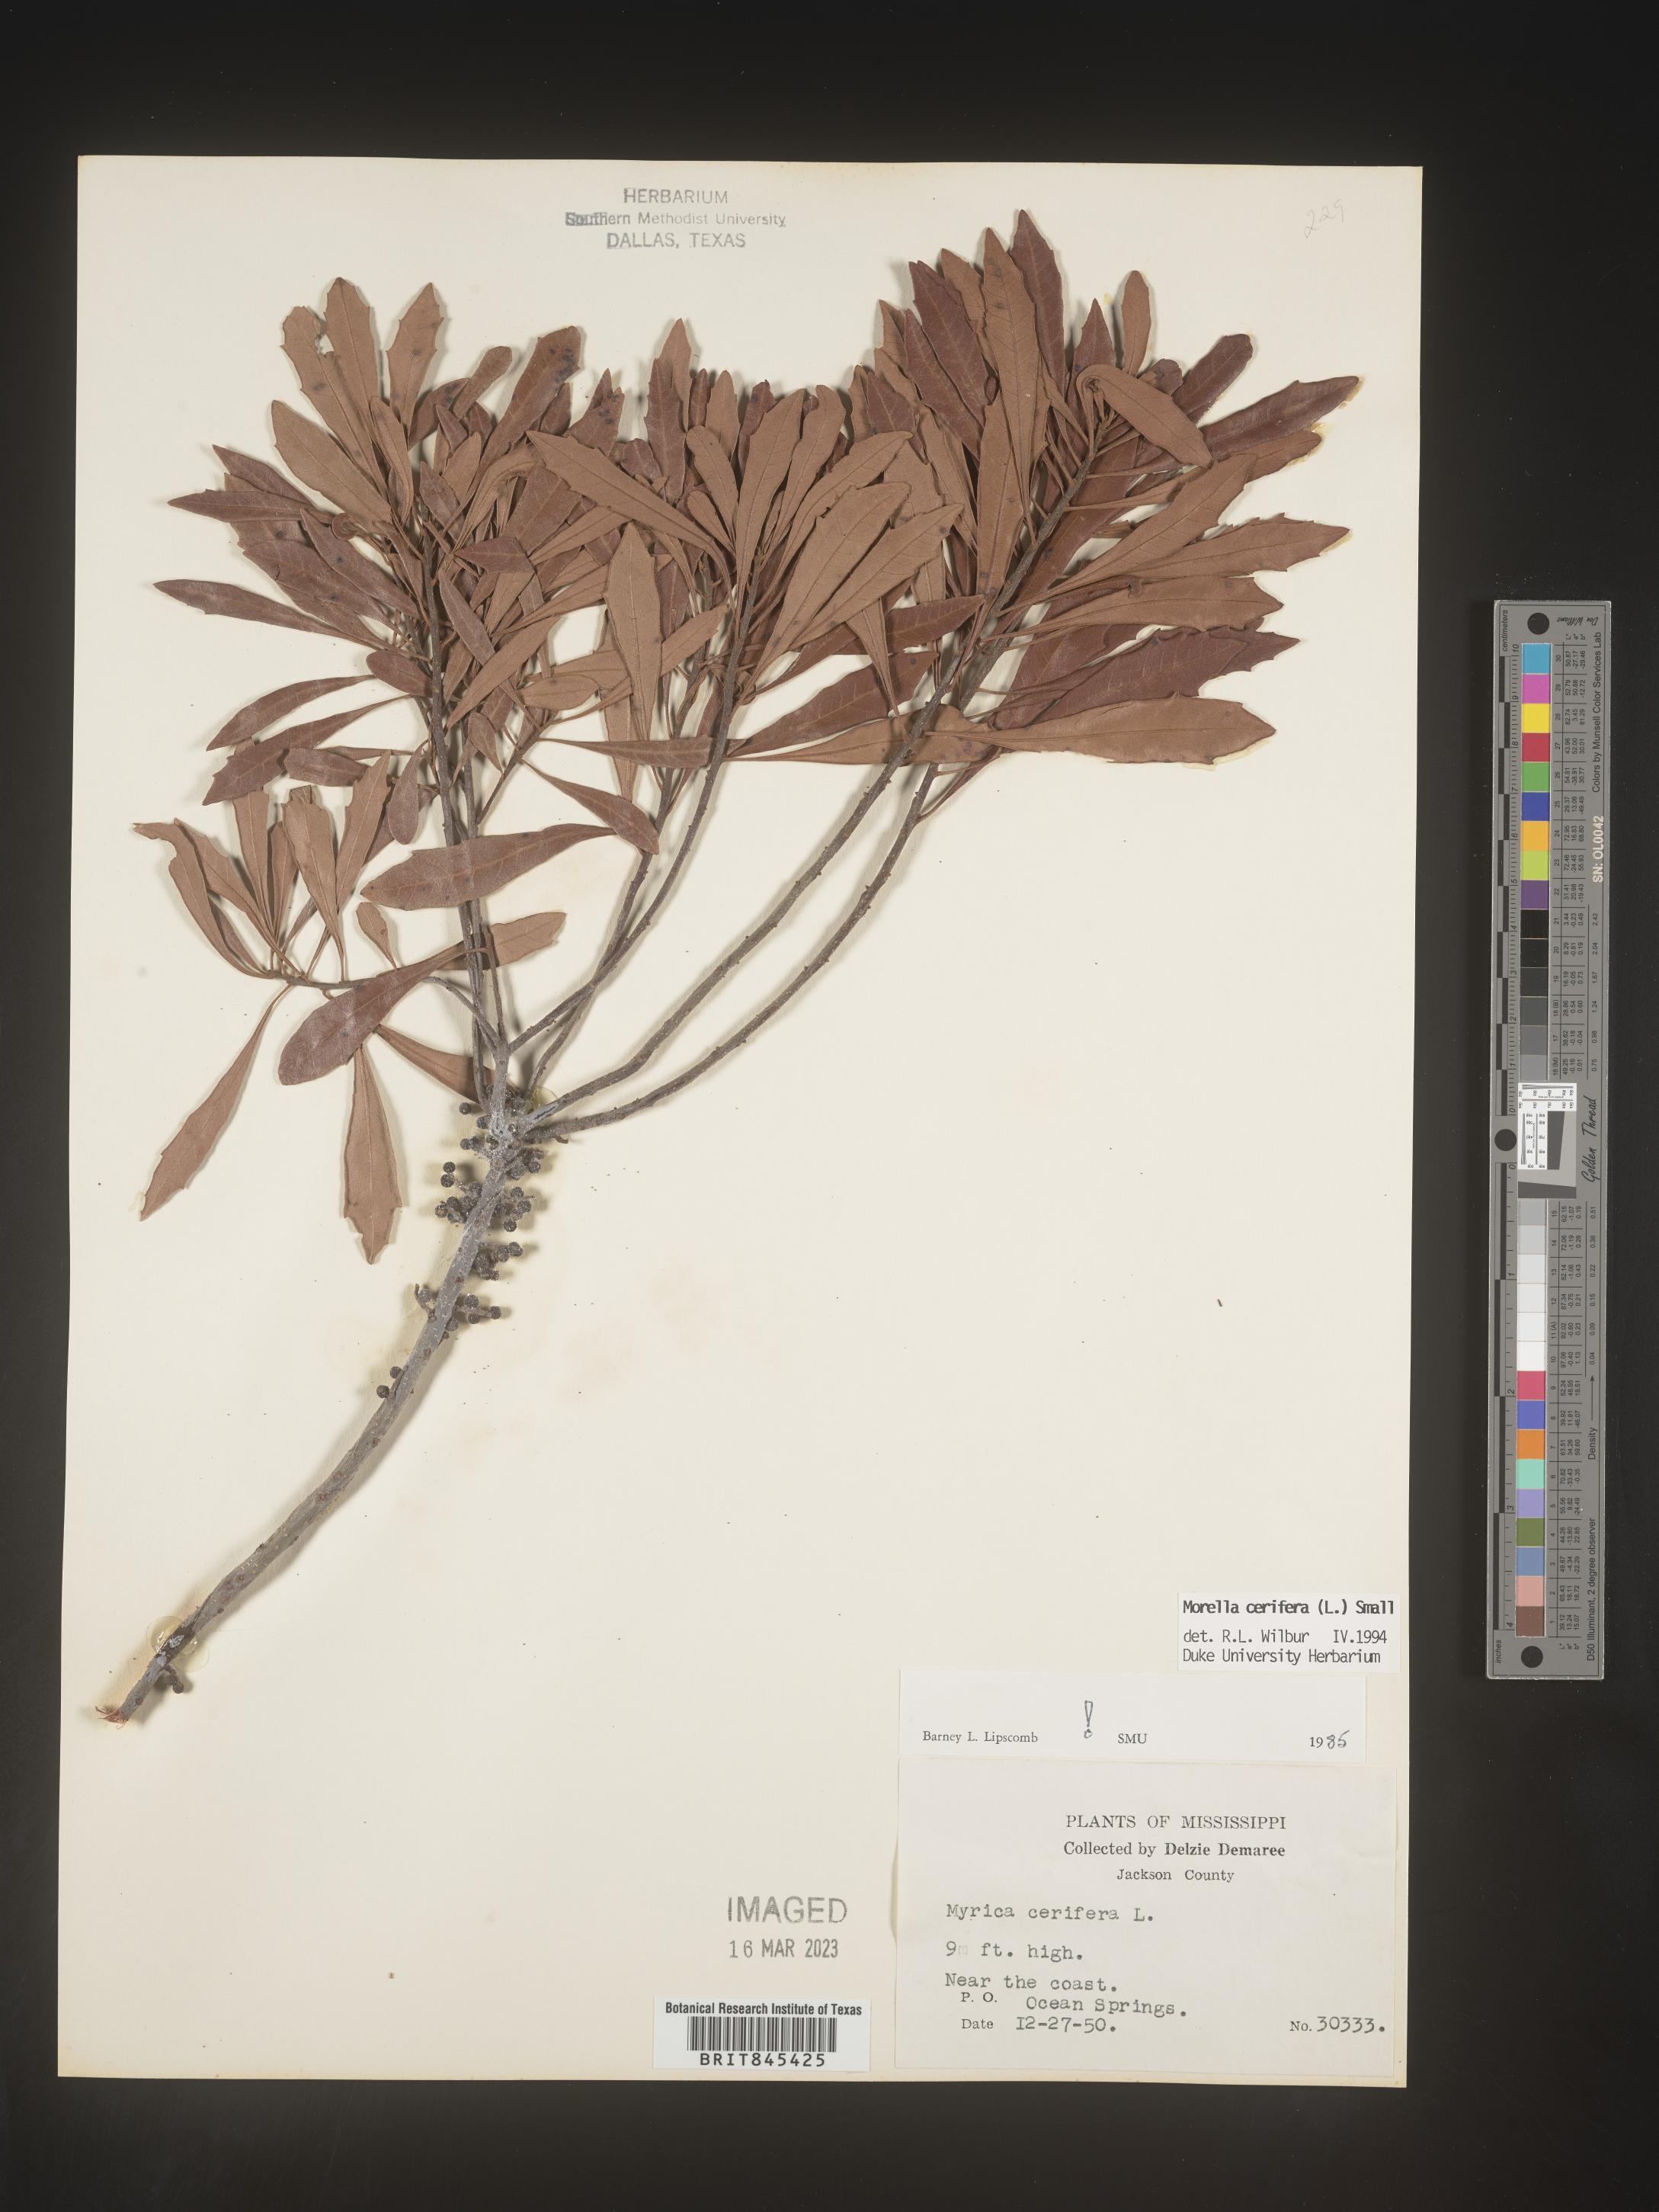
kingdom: Plantae
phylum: Tracheophyta
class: Magnoliopsida
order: Fagales
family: Myricaceae
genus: Morella
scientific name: Morella cerifera
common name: Wax myrtle
